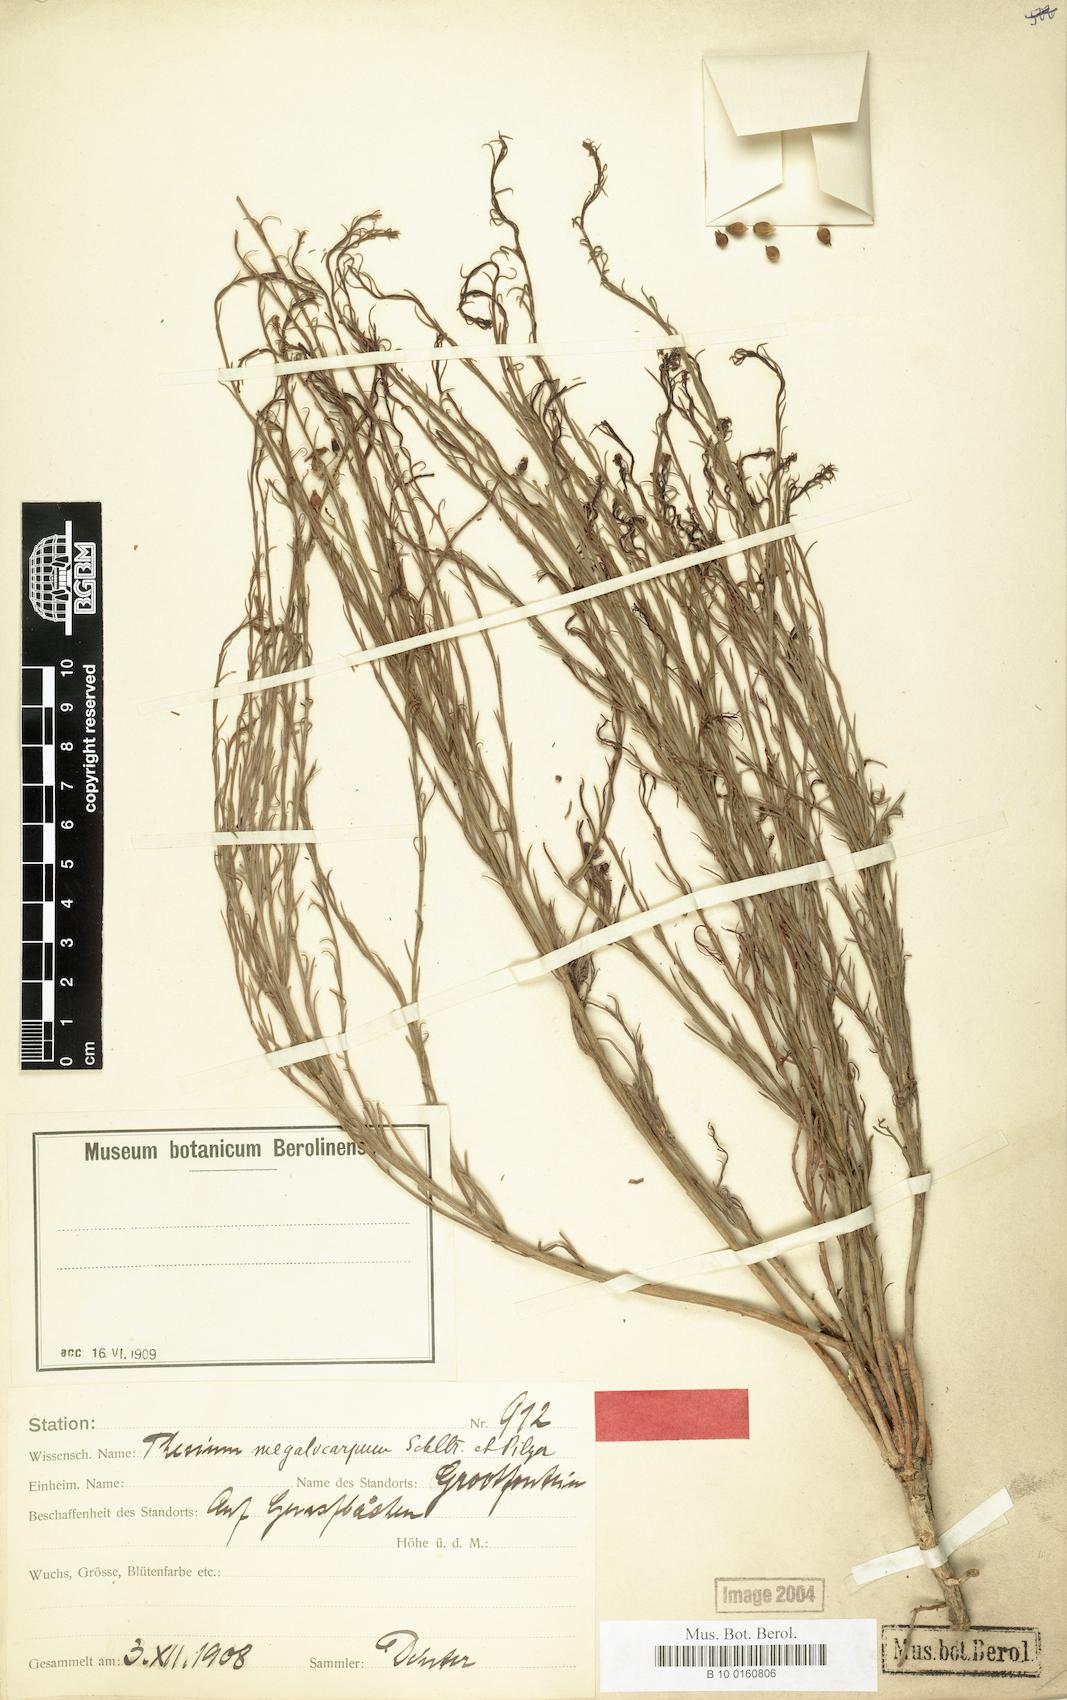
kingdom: Plantae
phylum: Tracheophyta
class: Magnoliopsida
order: Santalales
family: Thesiaceae
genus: Thesium
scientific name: Thesium megalocarpum
